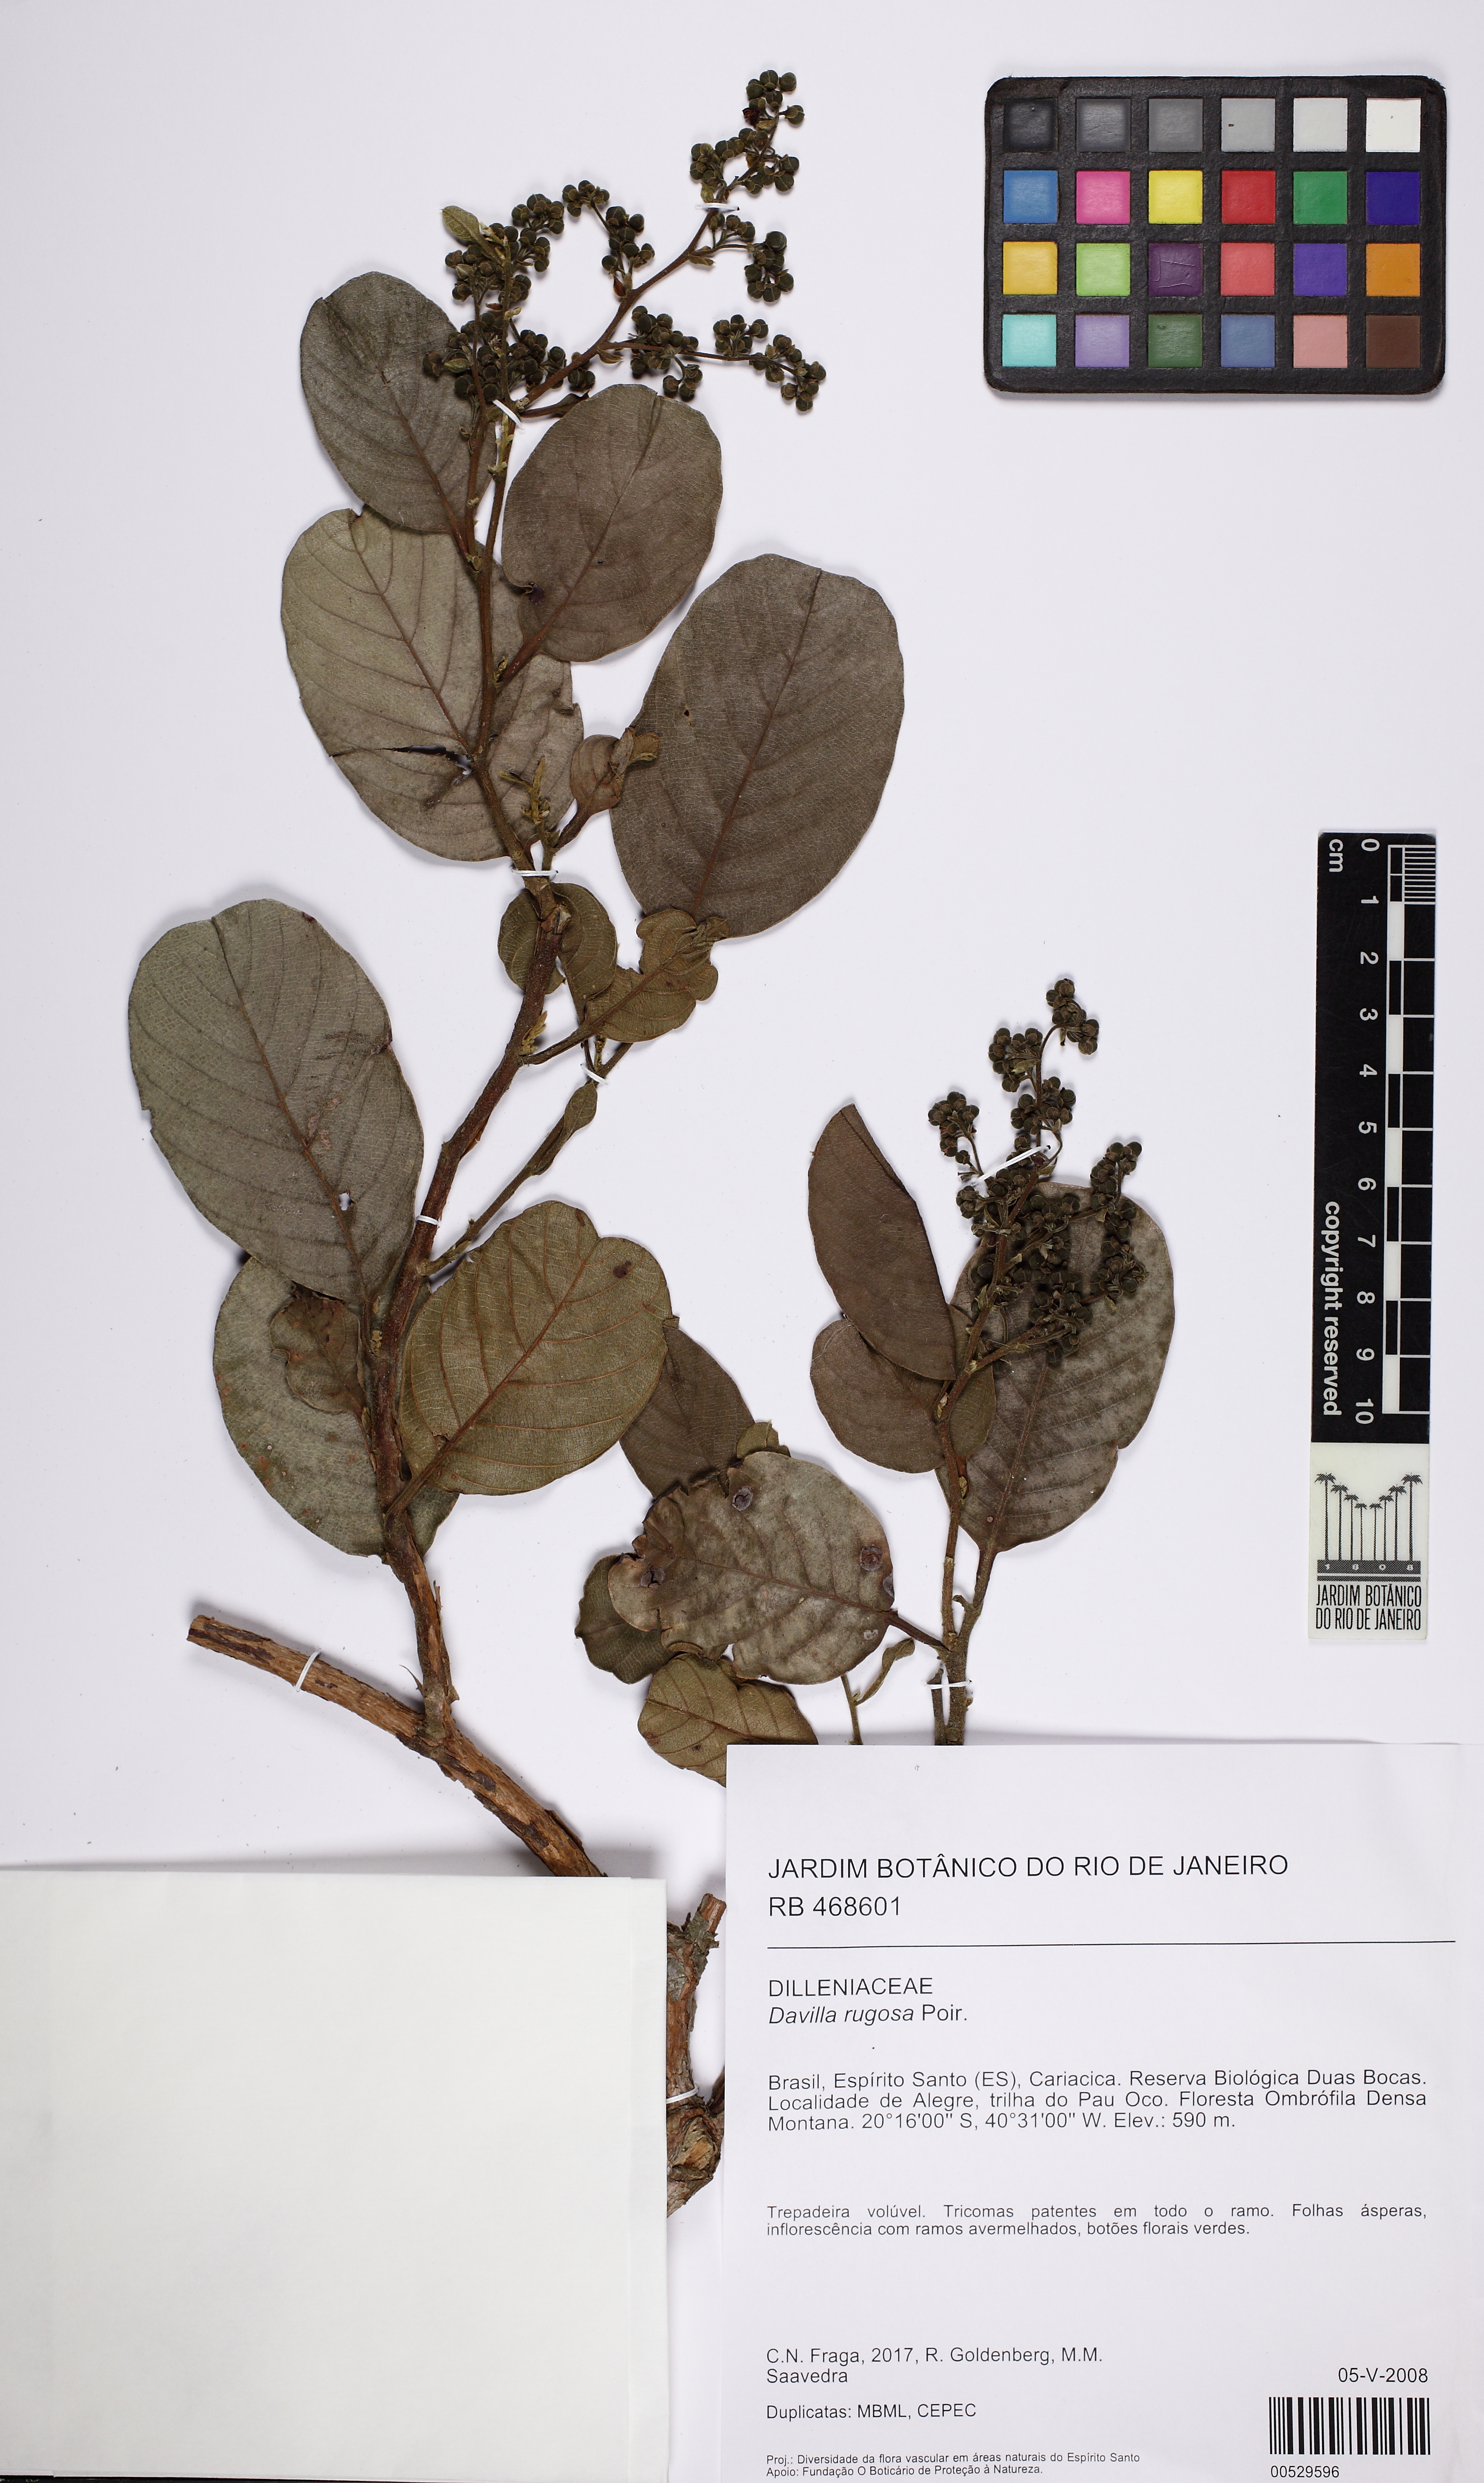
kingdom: Plantae
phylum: Tracheophyta
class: Magnoliopsida
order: Dilleniales
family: Dilleniaceae
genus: Davilla
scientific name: Davilla rugosa
